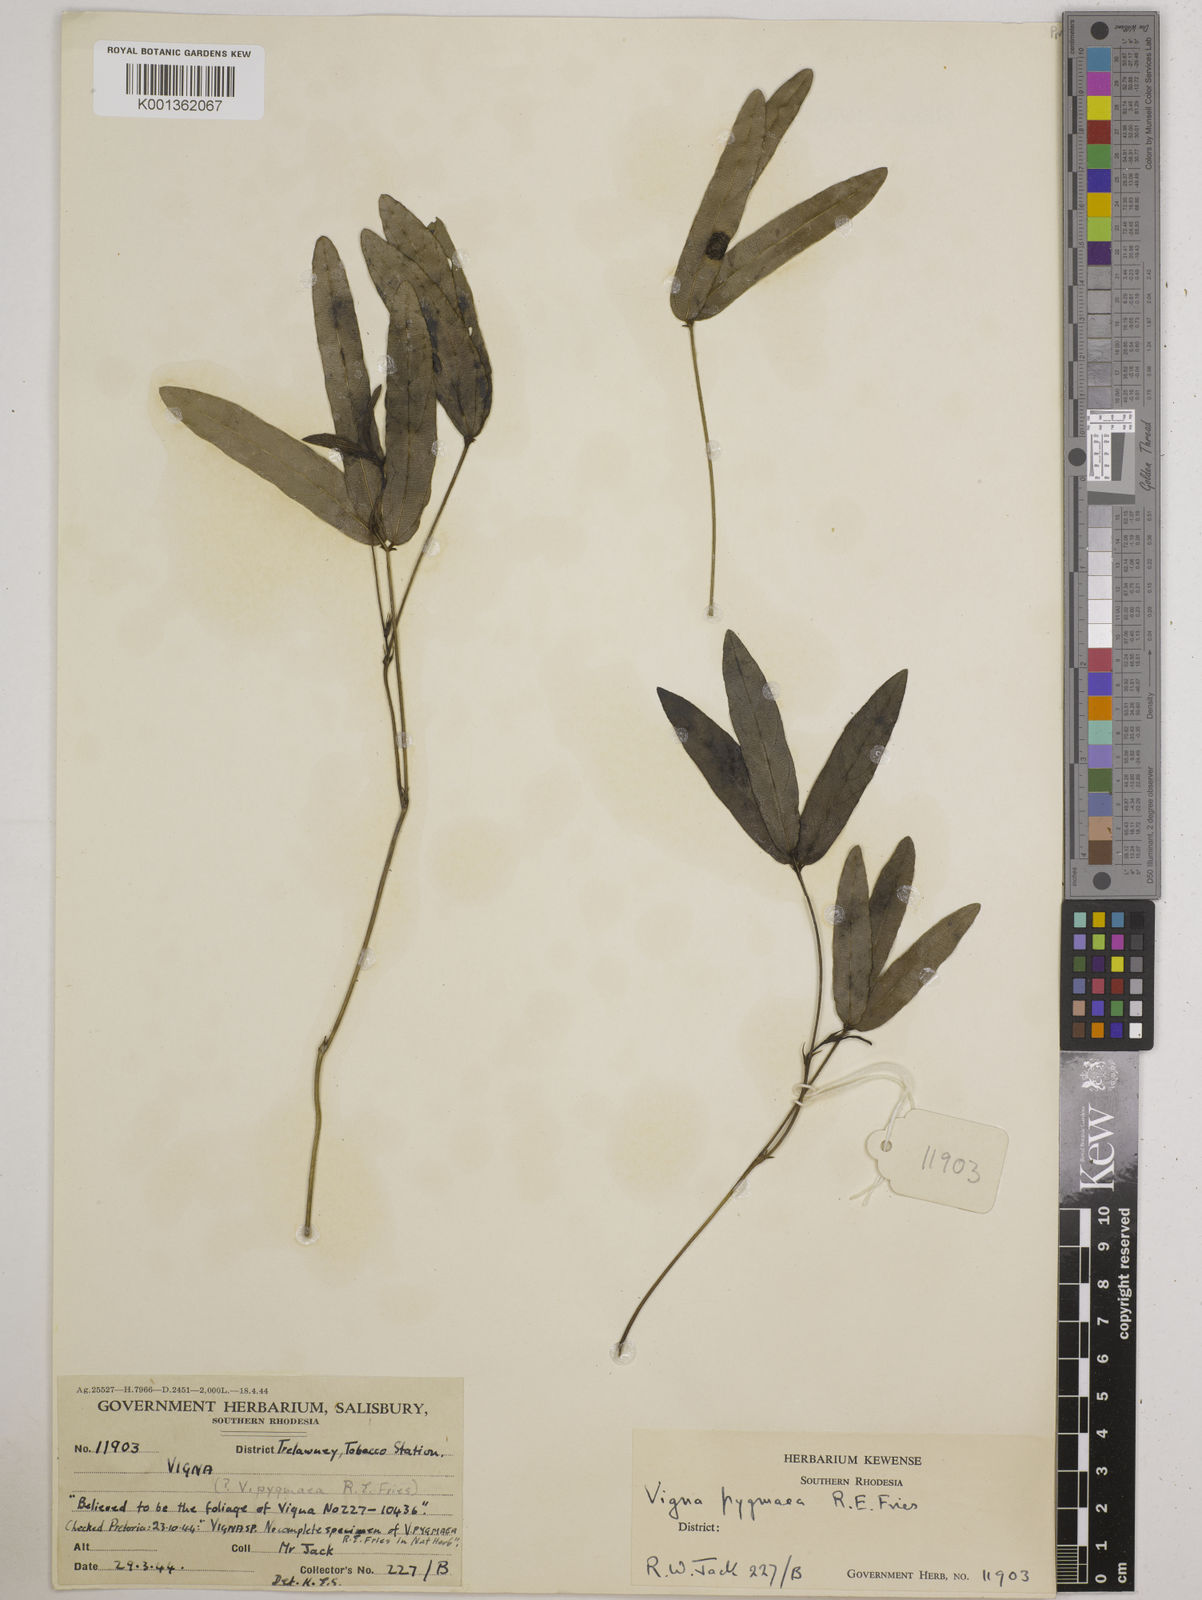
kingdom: Plantae
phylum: Tracheophyta
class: Magnoliopsida
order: Fabales
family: Fabaceae
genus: Vigna
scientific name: Vigna pygmaea
